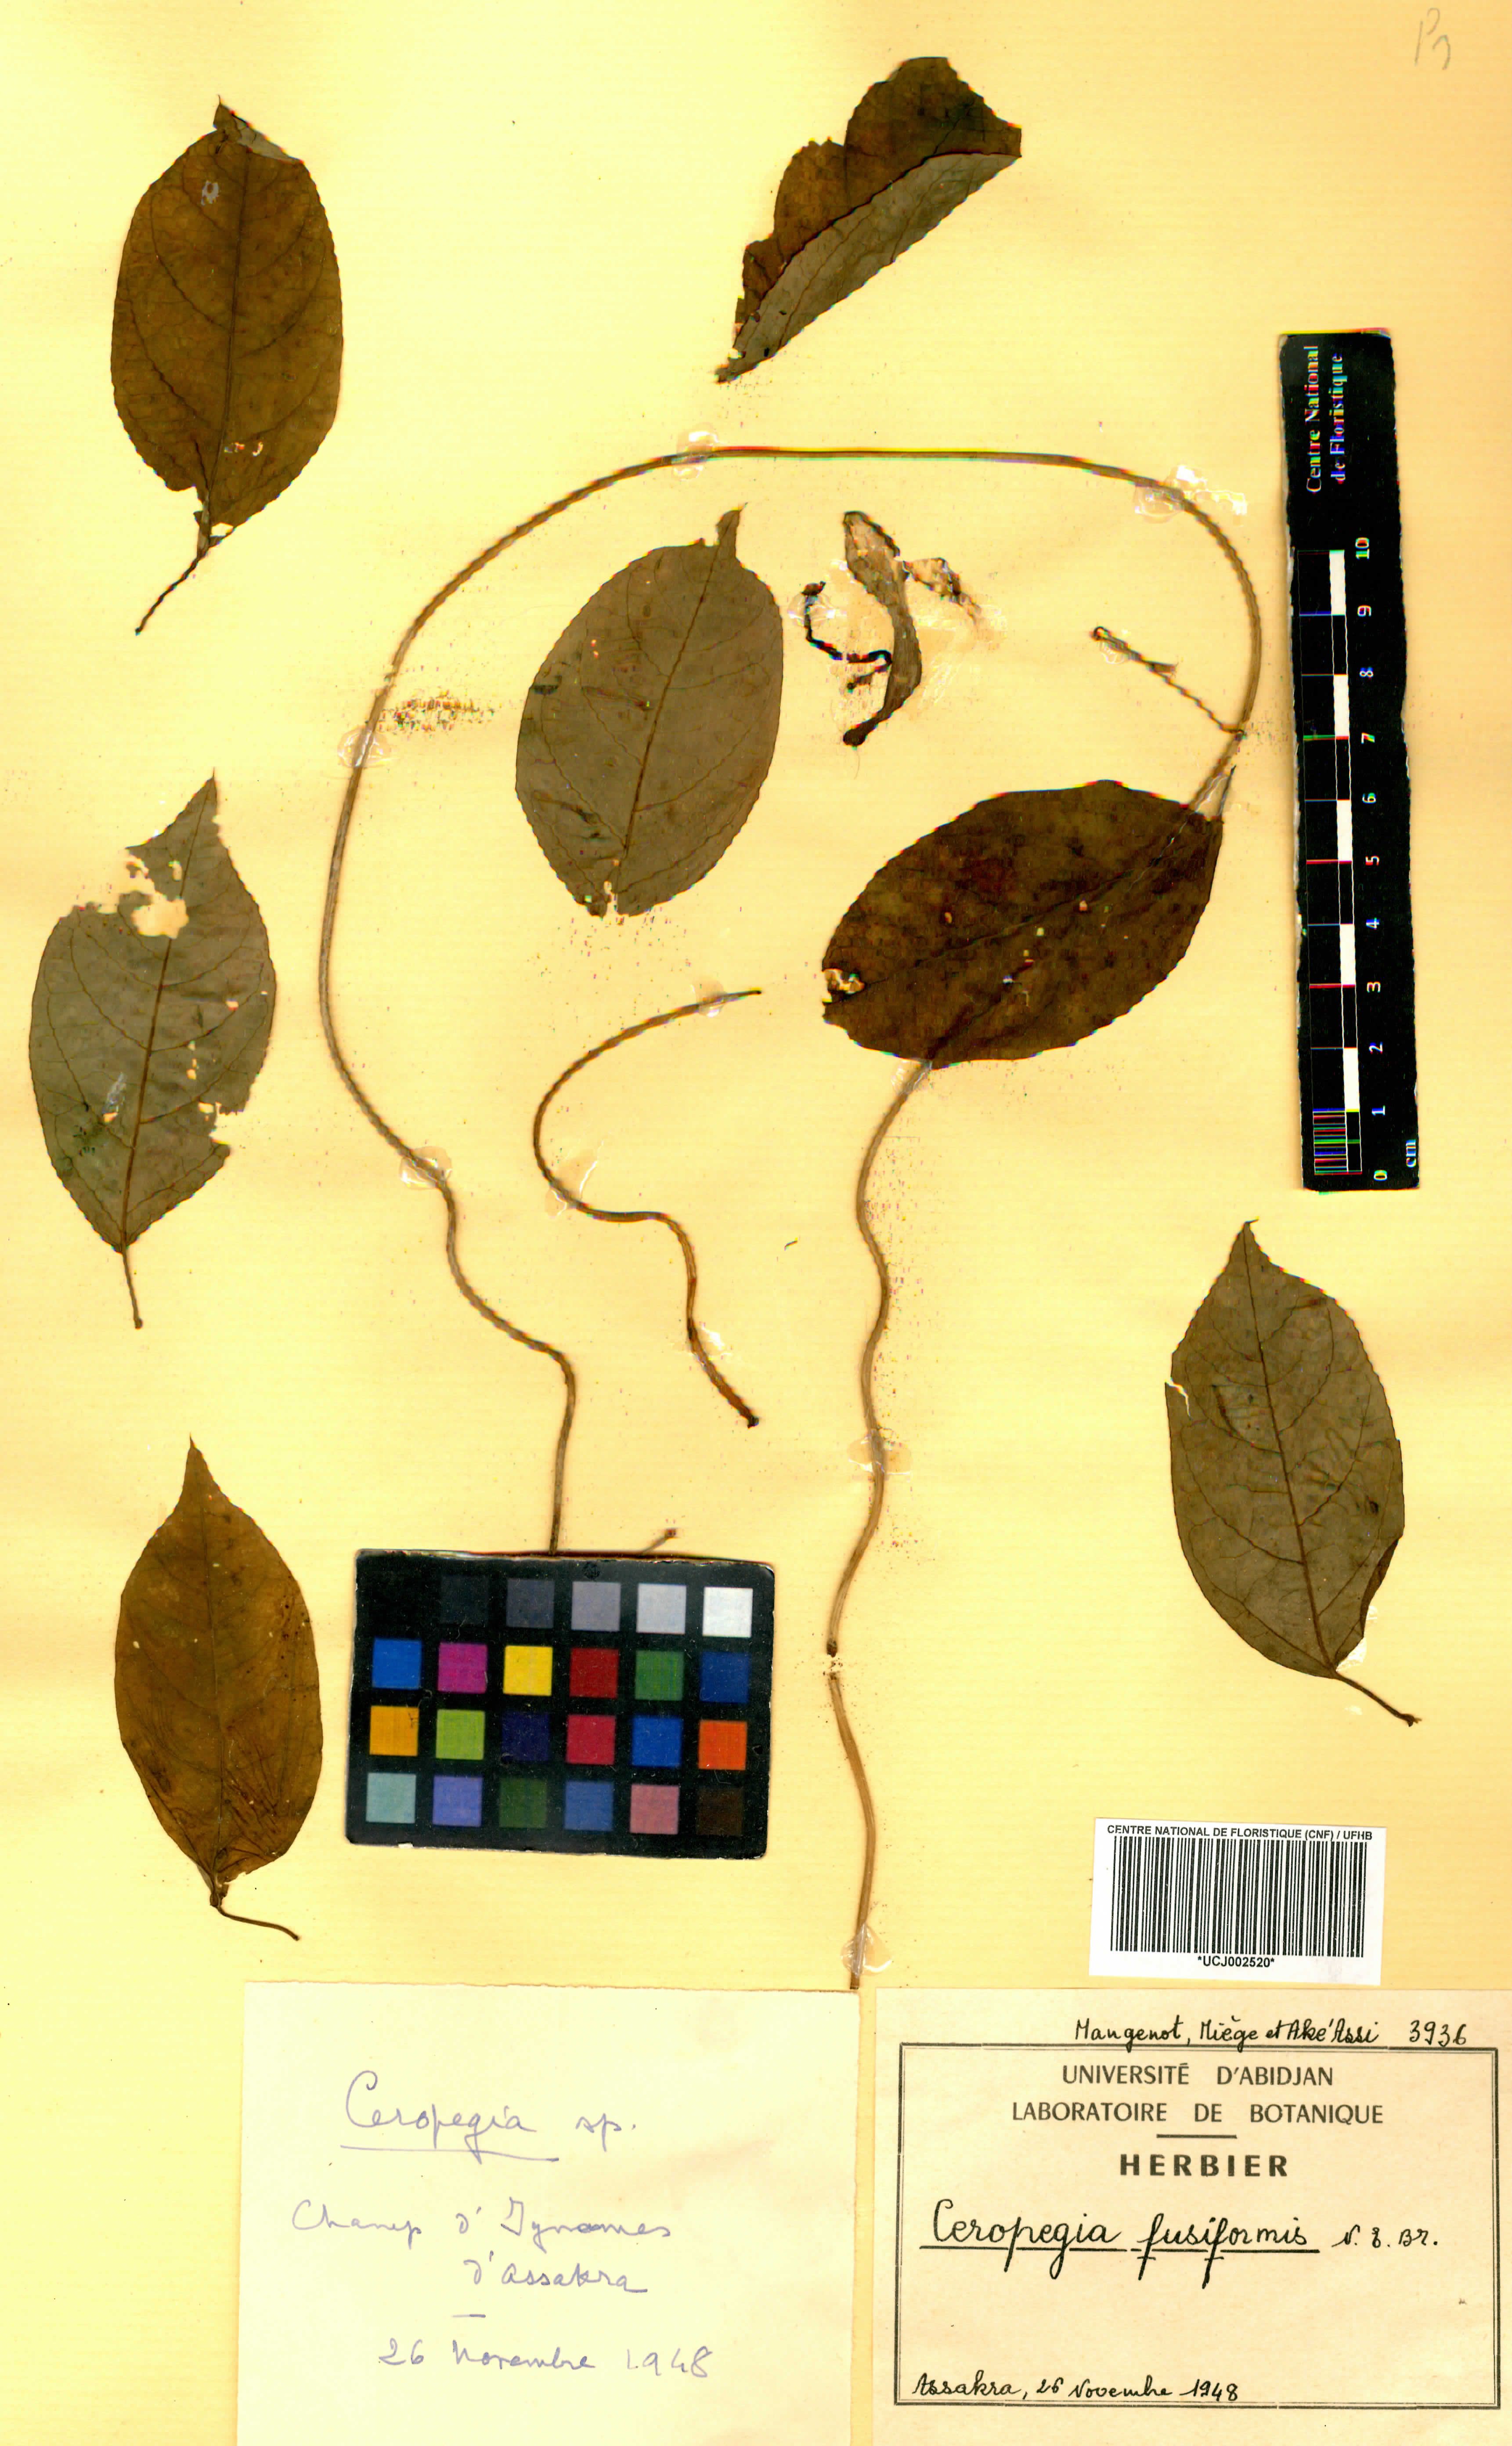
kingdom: Plantae
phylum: Tracheophyta
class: Magnoliopsida
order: Gentianales
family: Apocynaceae
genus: Ceropegia
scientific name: Ceropegia fusiformis
